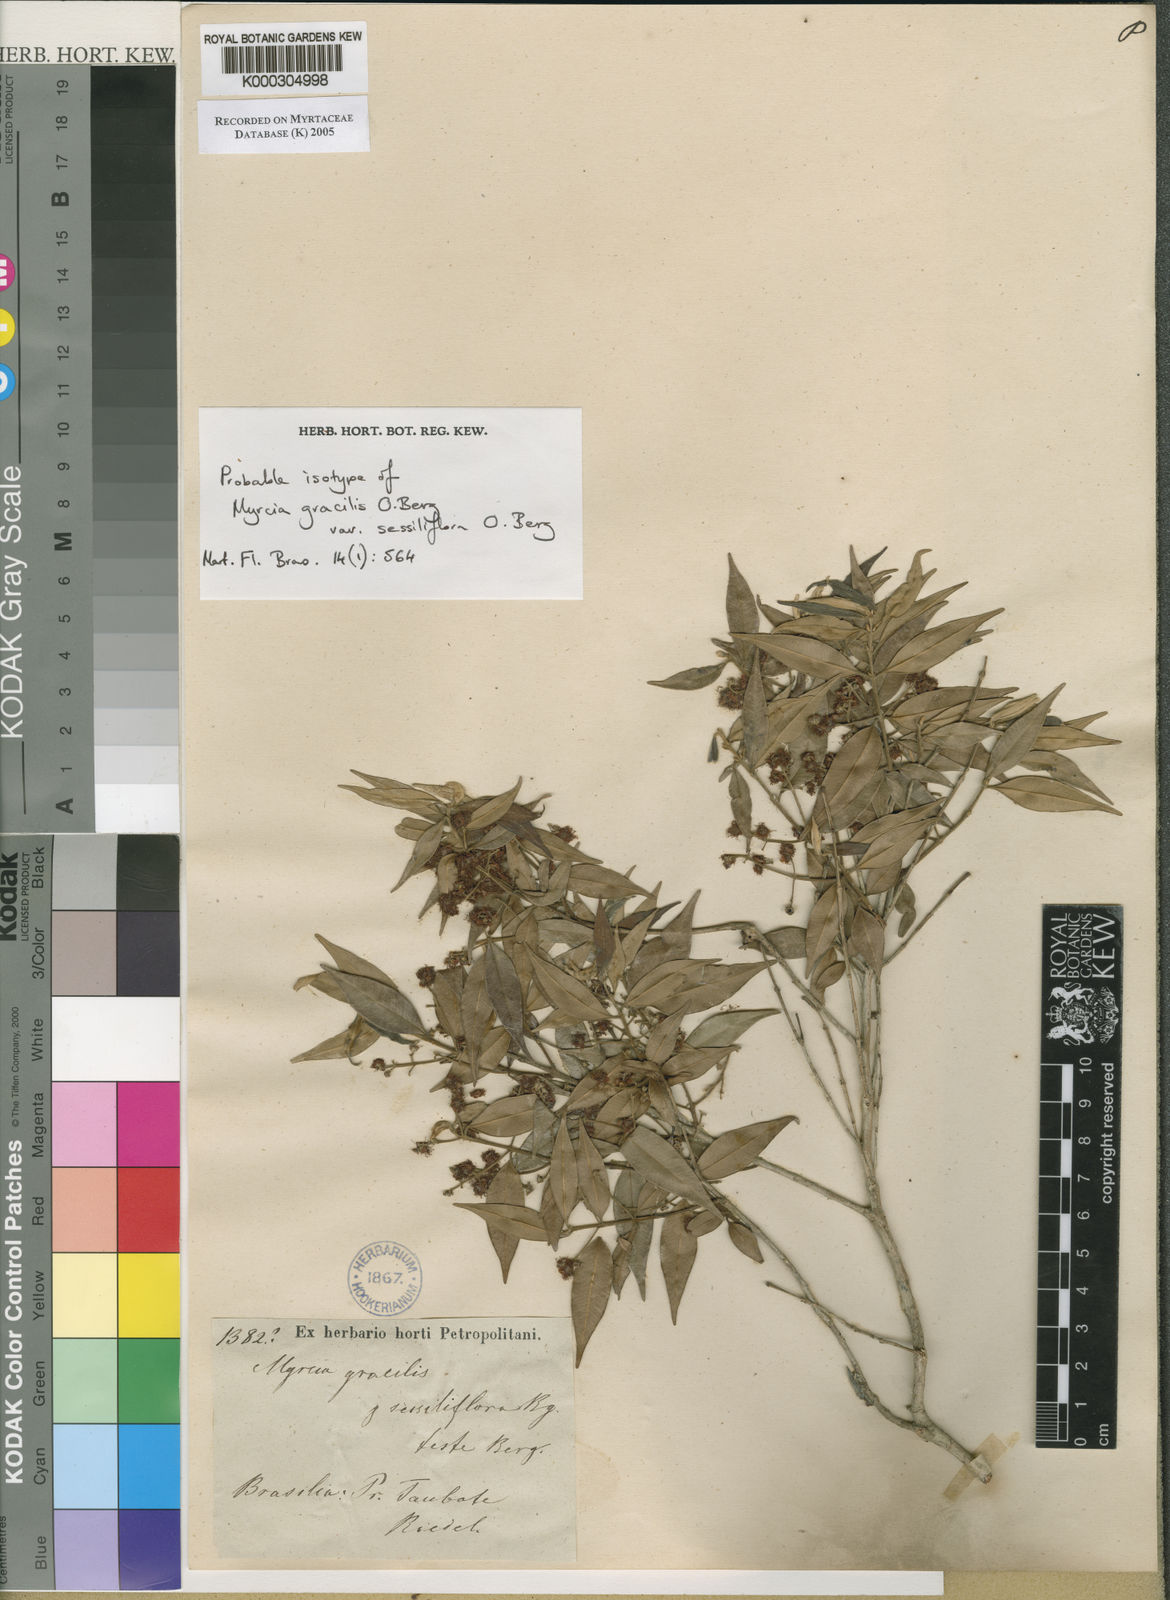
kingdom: Plantae
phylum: Tracheophyta
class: Magnoliopsida
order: Myrtales
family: Myrtaceae
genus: Myrcia
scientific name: Myrcia splendens
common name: Surinam cherry
